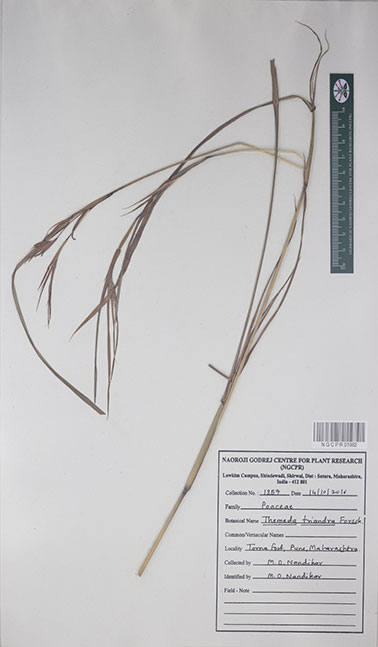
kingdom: Plantae
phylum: Tracheophyta
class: Liliopsida
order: Poales
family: Poaceae
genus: Themeda
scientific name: Themeda triandra
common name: Kangaroo grass
